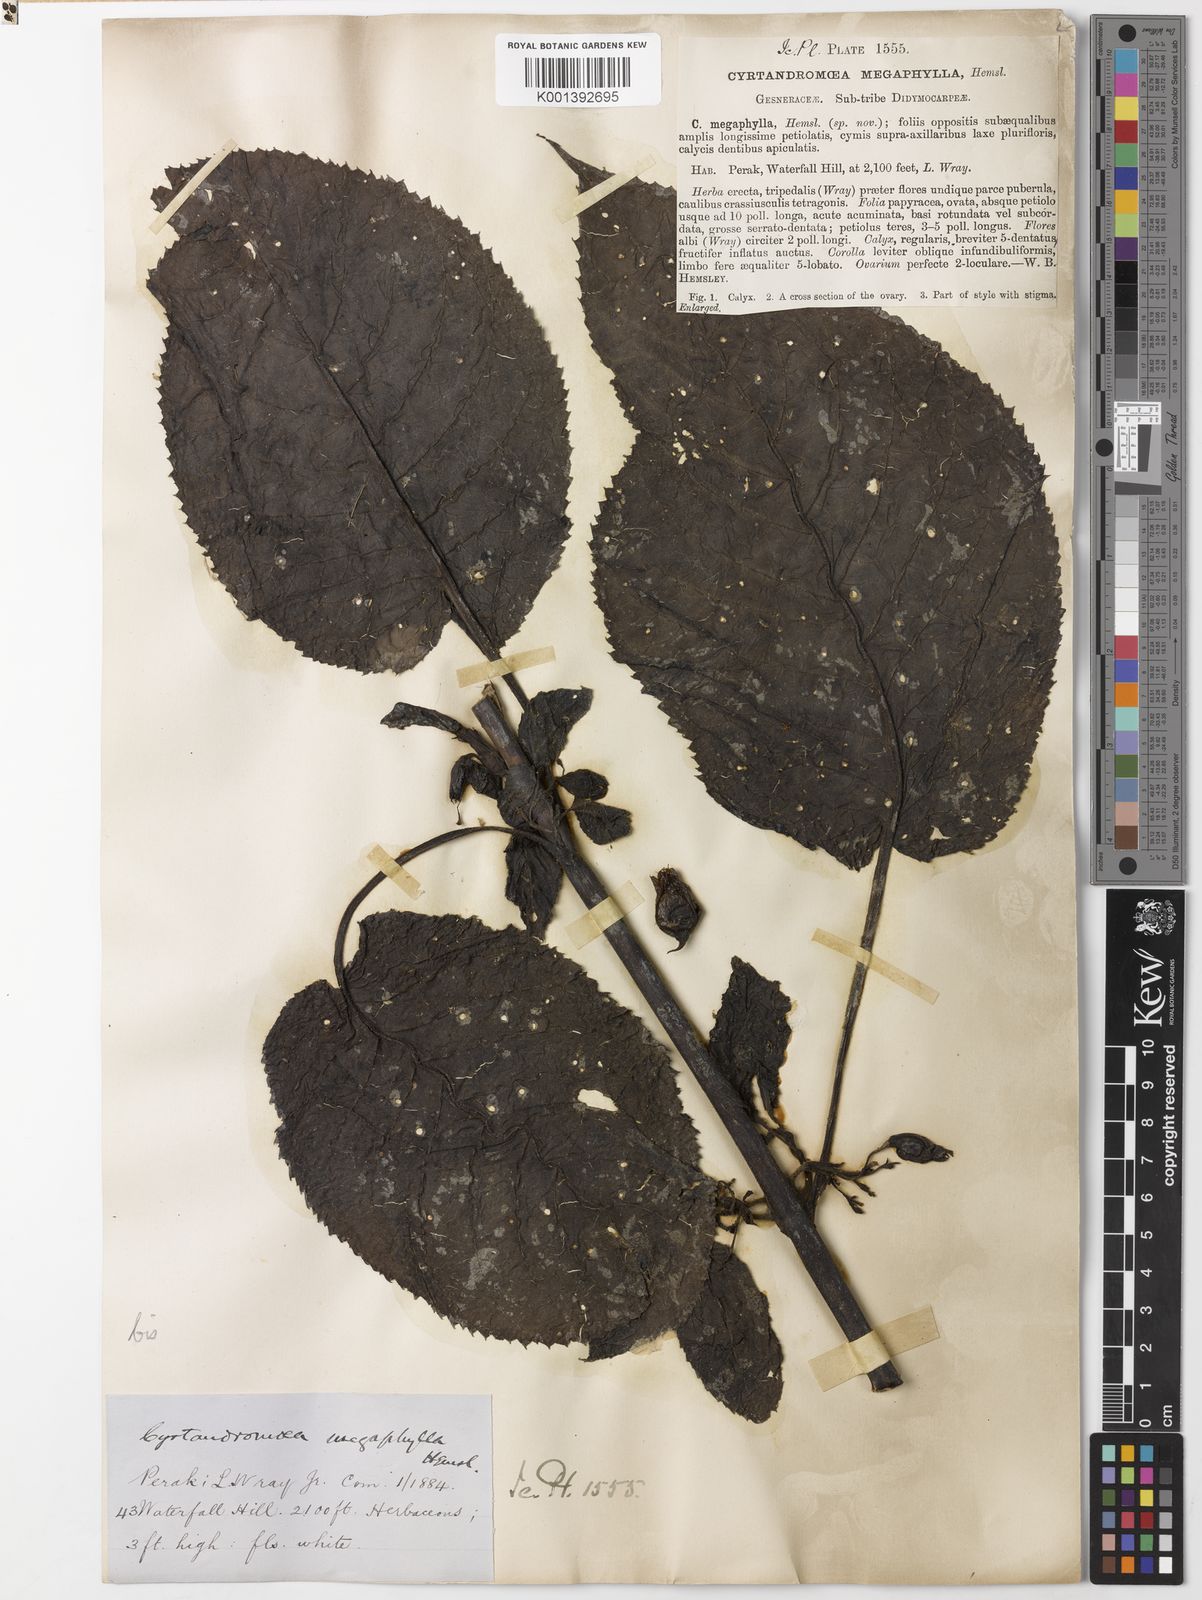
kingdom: Plantae
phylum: Tracheophyta
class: Magnoliopsida
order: Lamiales
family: Phrymaceae
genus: Cyrtandromoea
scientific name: Cyrtandromoea megaphylla
